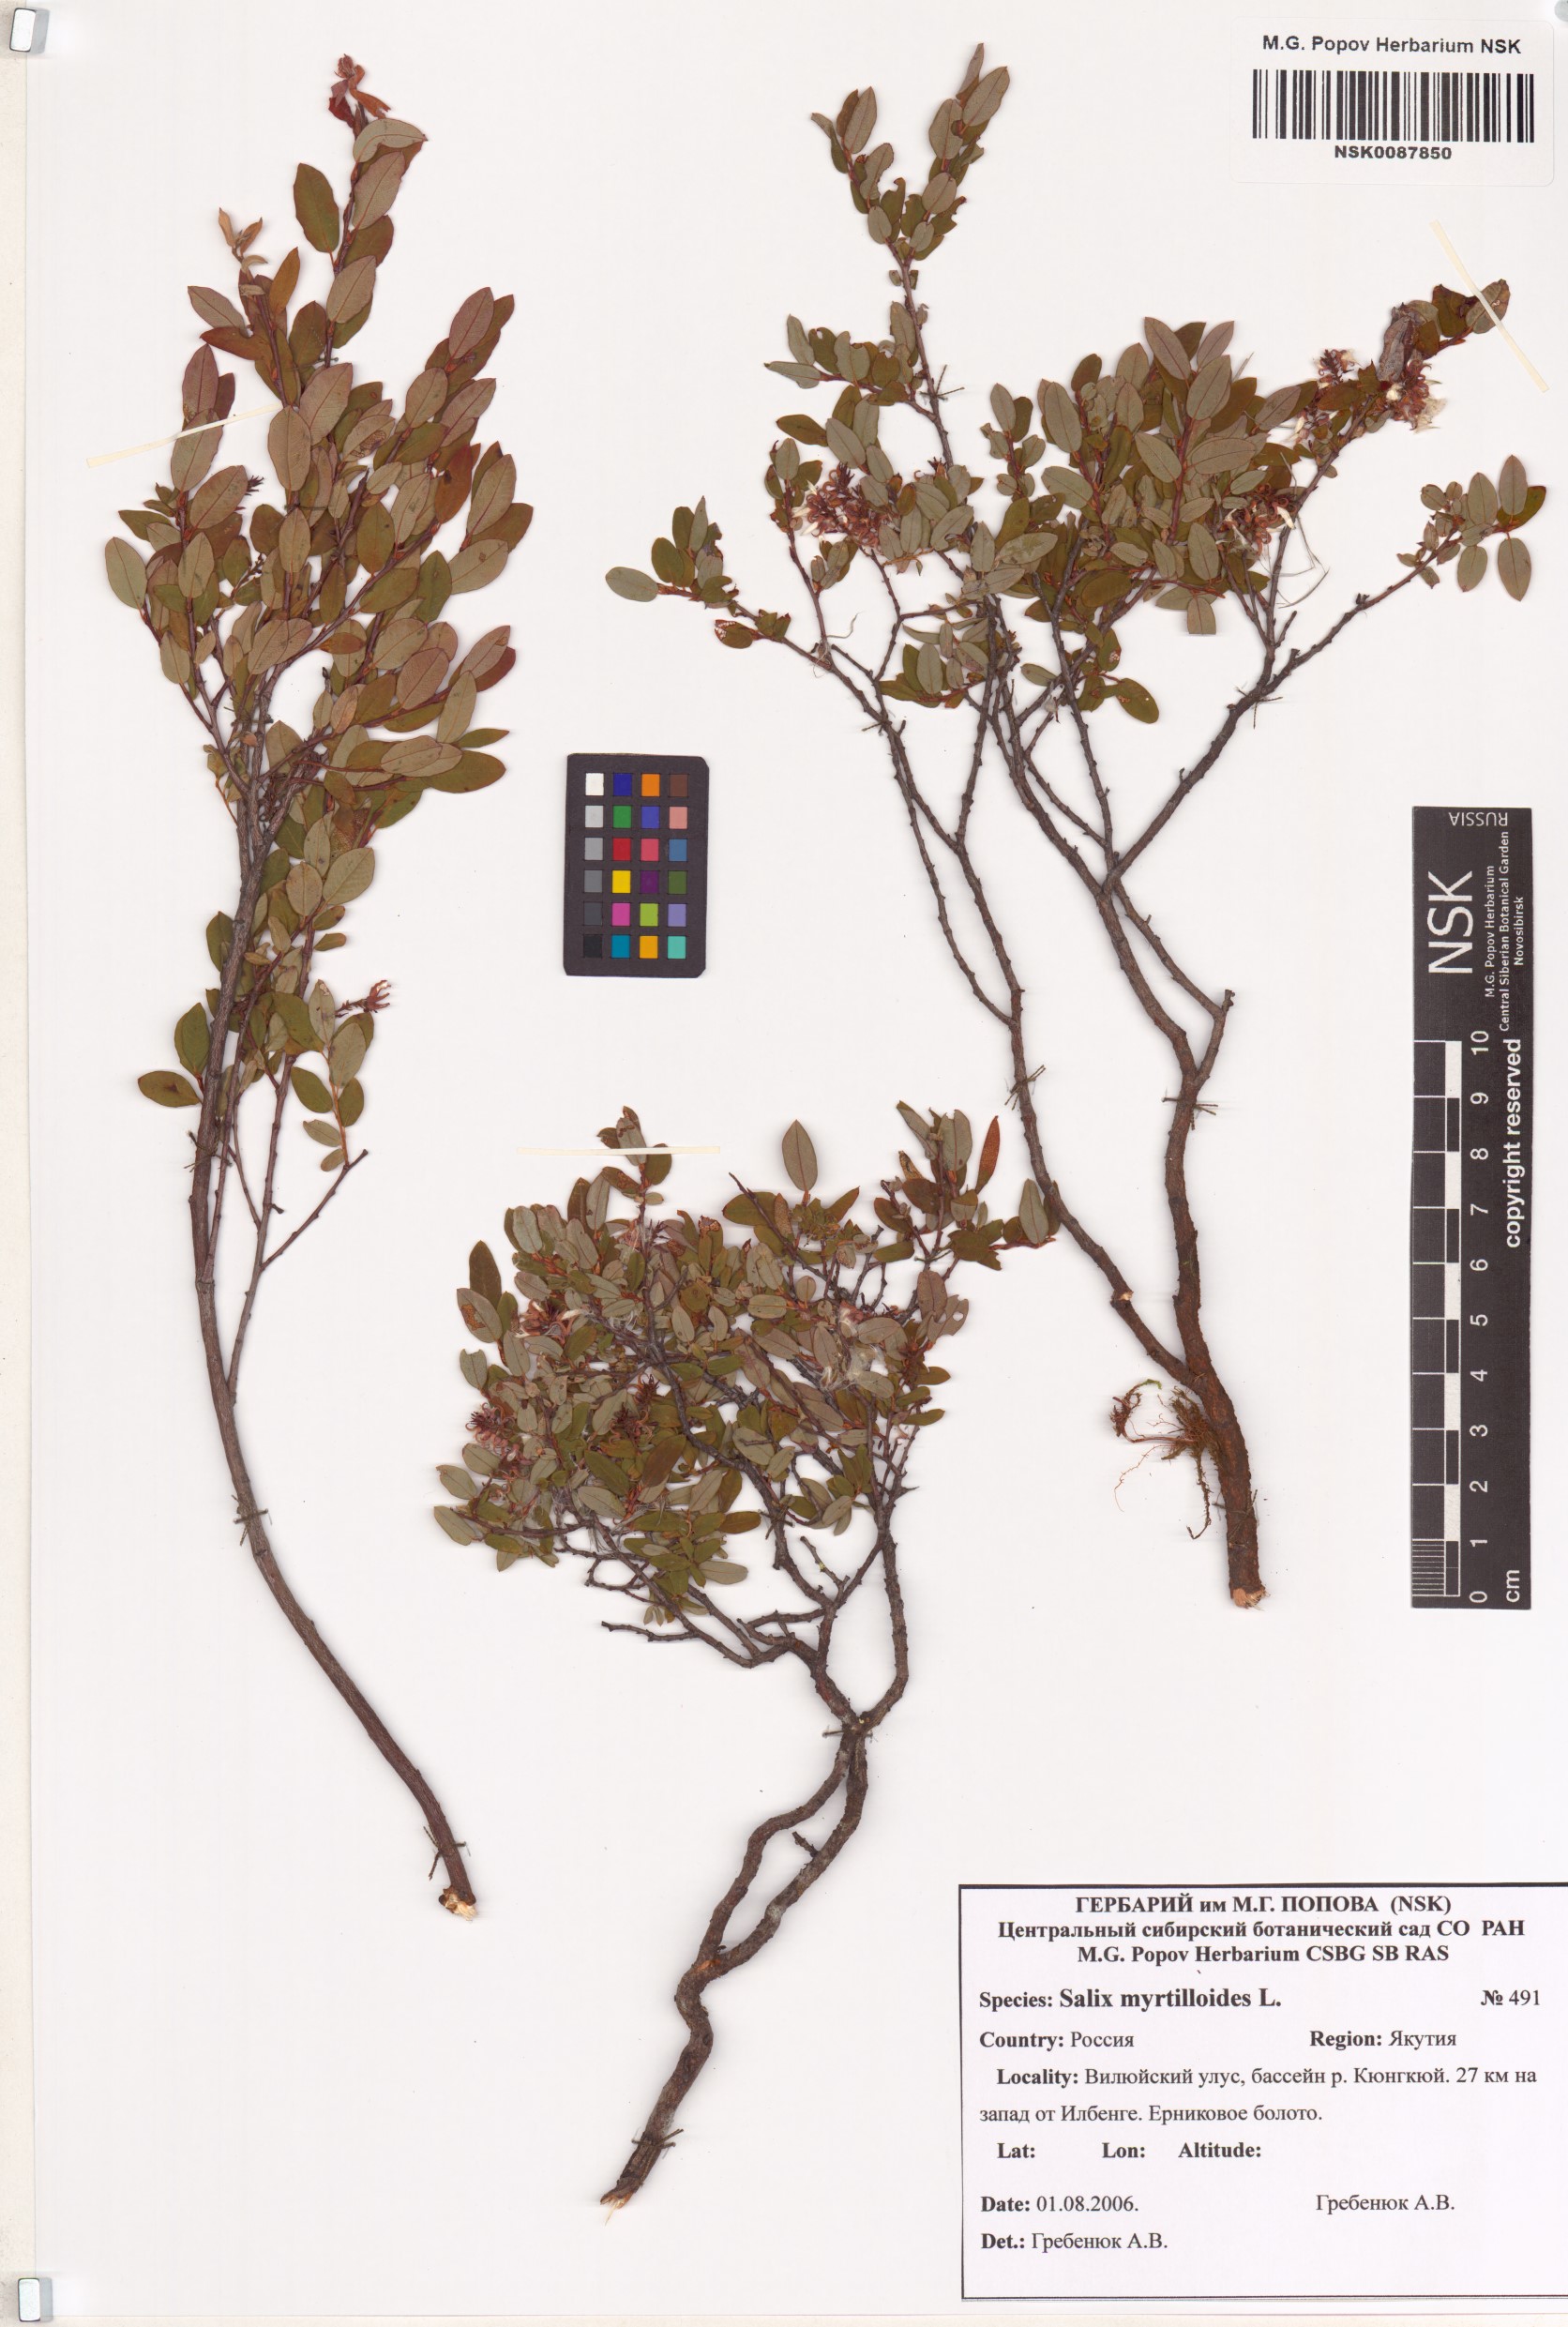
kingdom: Plantae
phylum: Tracheophyta
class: Magnoliopsida
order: Malpighiales
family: Salicaceae
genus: Salix
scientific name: Salix myrtilloides
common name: Myrtle-leaved willow
